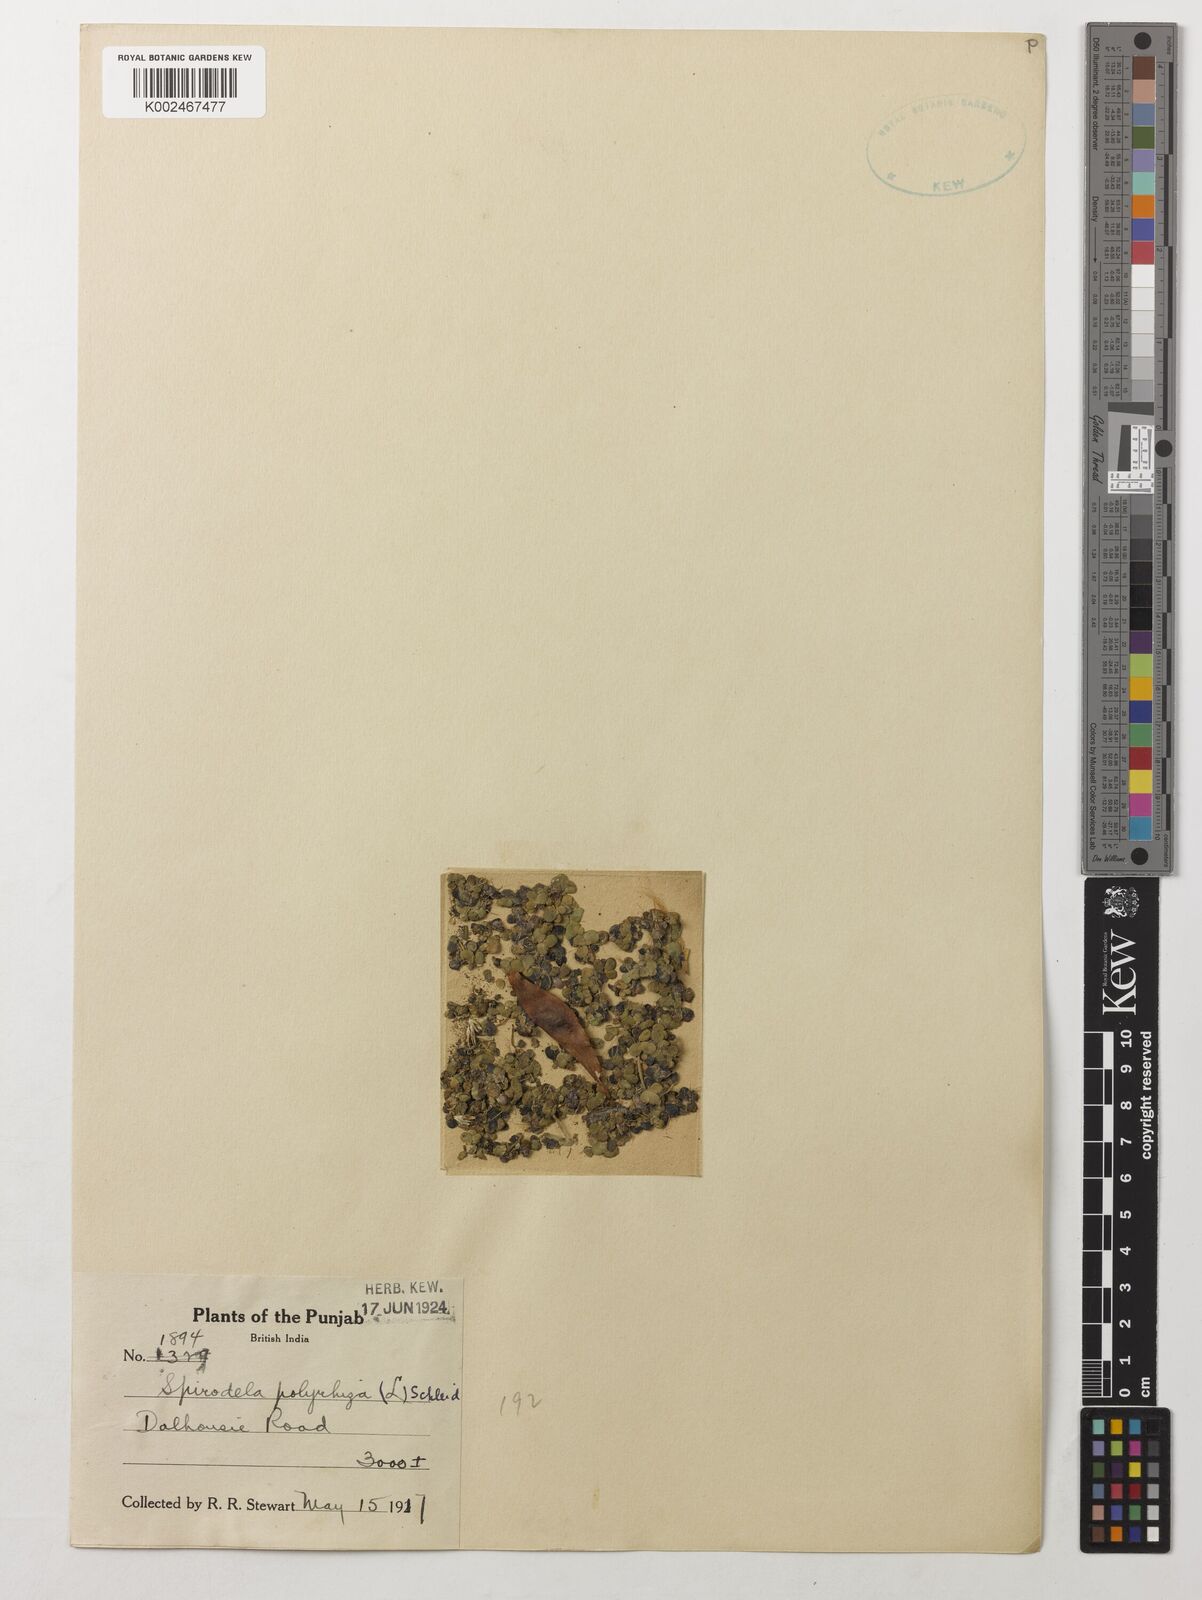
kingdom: Plantae
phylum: Tracheophyta
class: Liliopsida
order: Alismatales
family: Araceae
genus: Spirodela
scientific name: Spirodela polyrhiza
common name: Great duckweed
